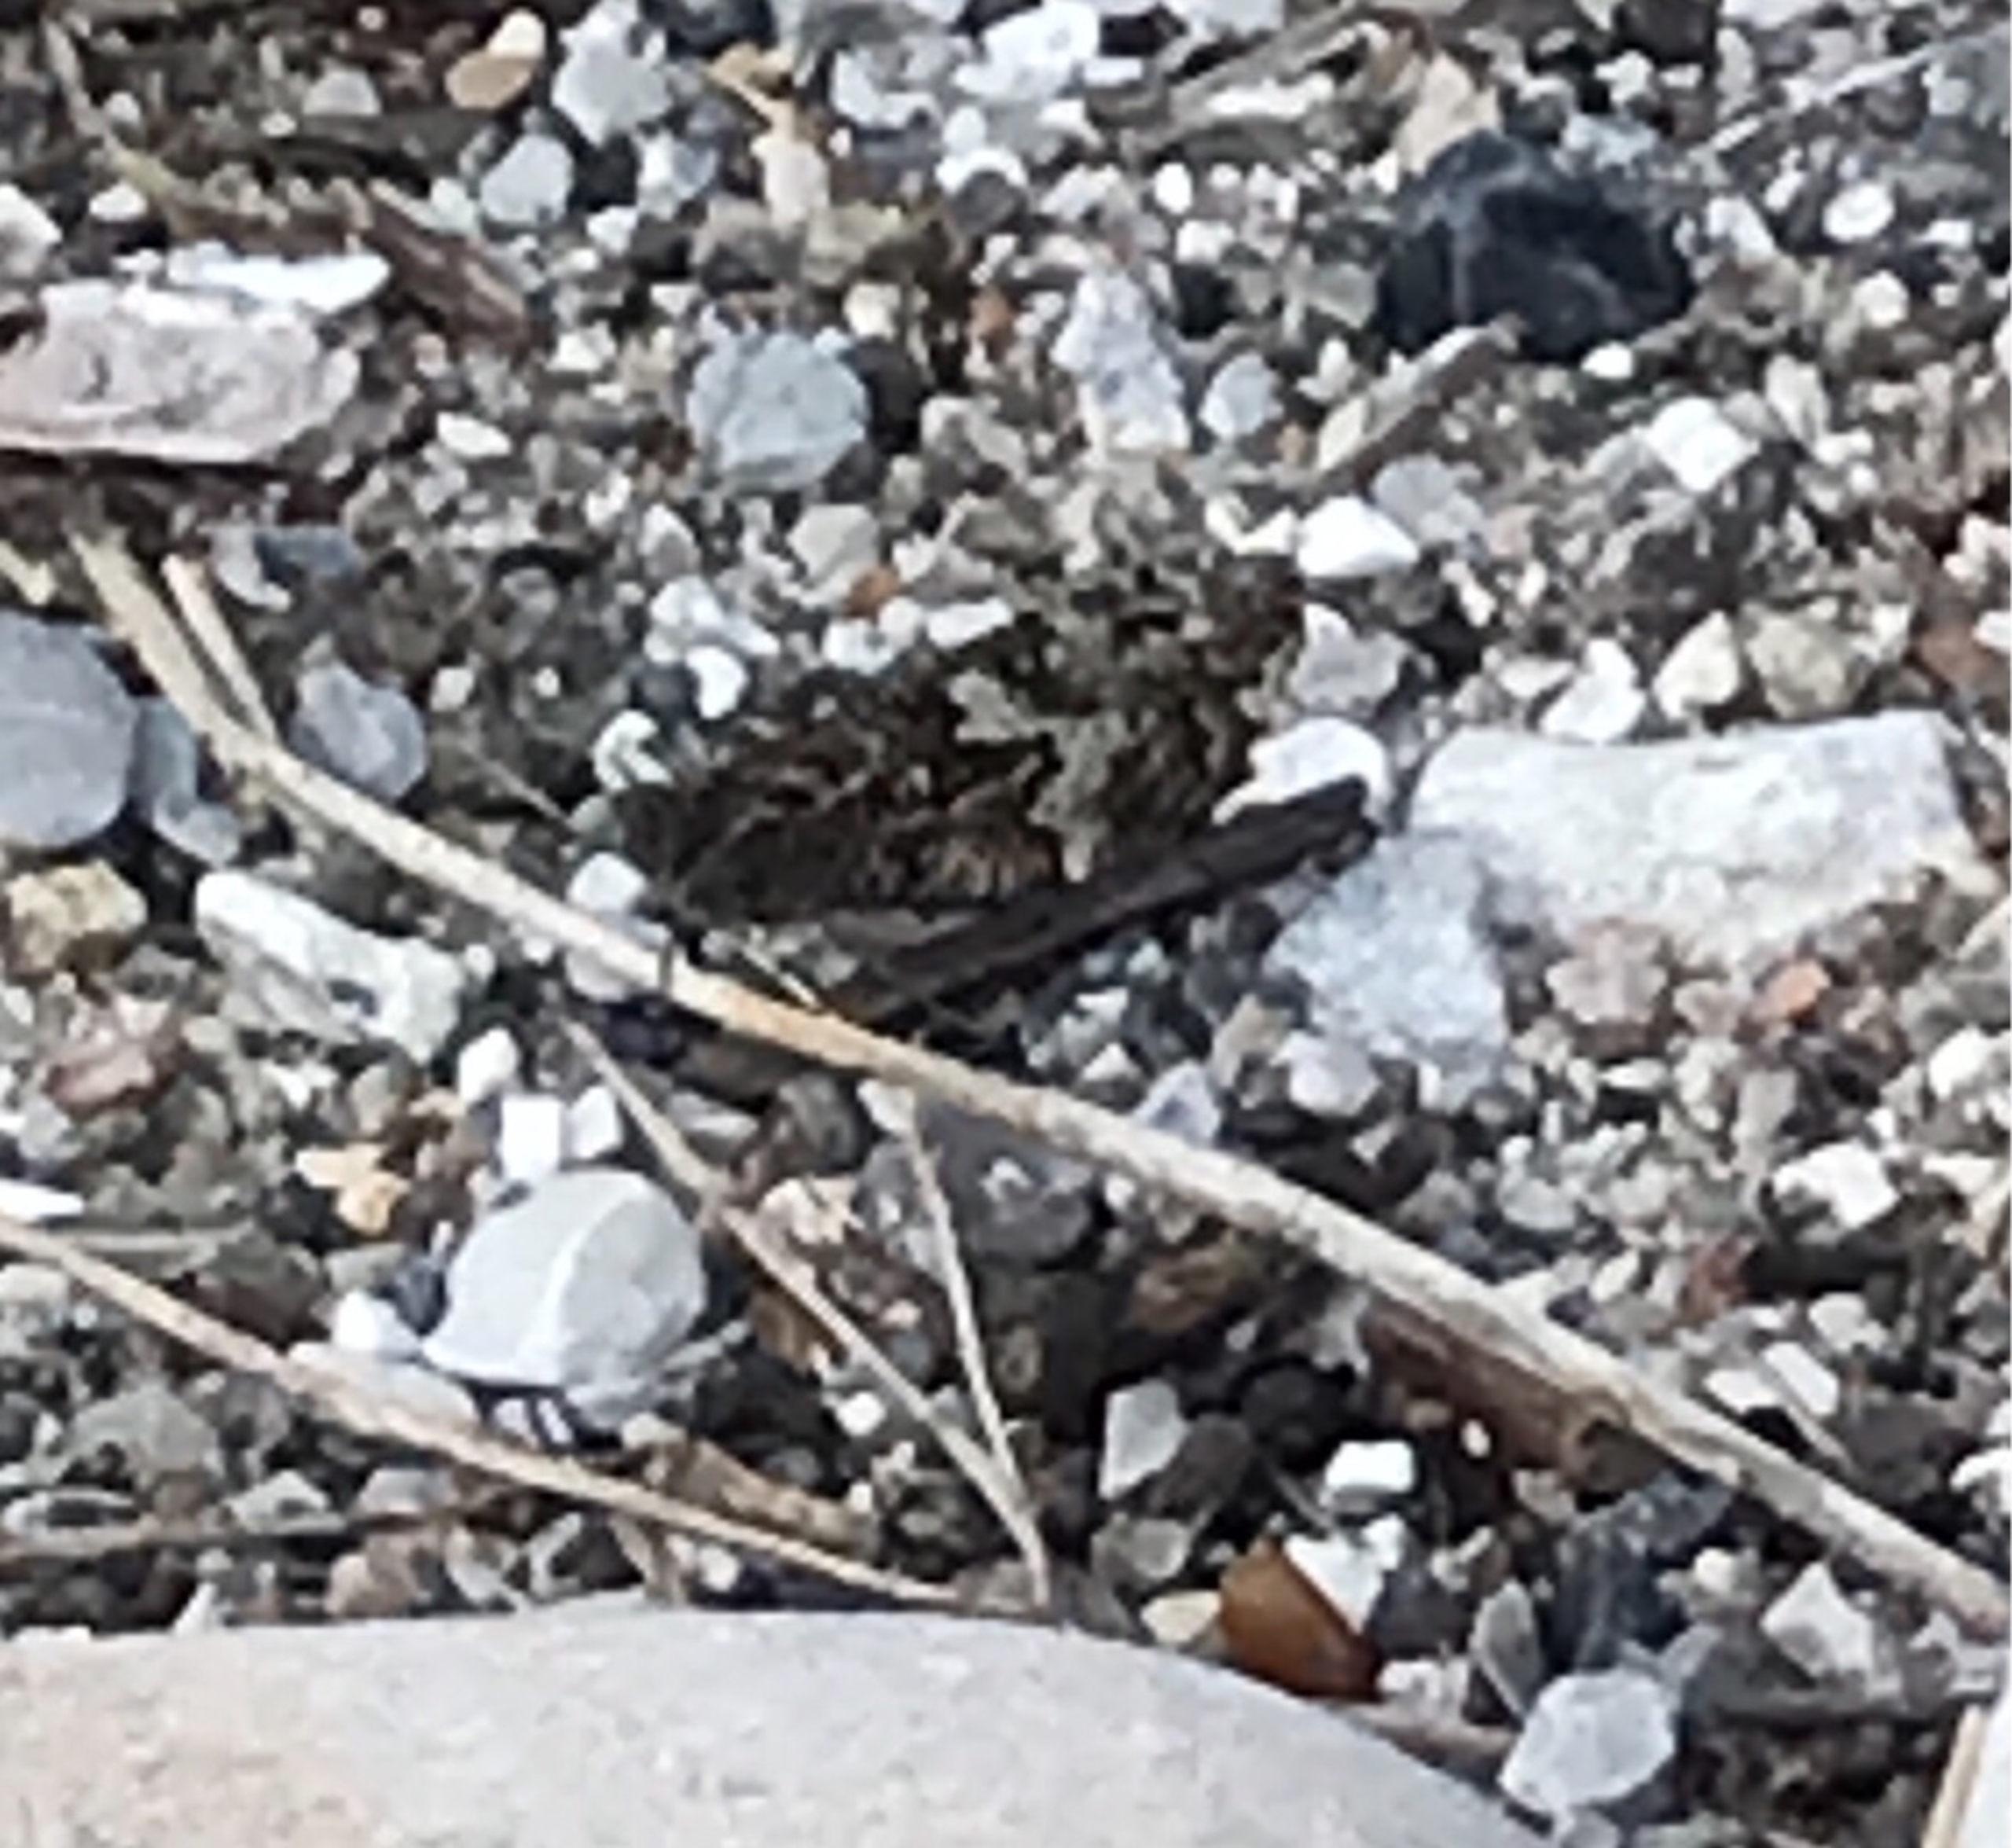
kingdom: Animalia
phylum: Arthropoda
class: Insecta
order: Lepidoptera
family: Nymphalidae
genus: Hipparchia
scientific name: Hipparchia semele
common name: Sandrandøje
